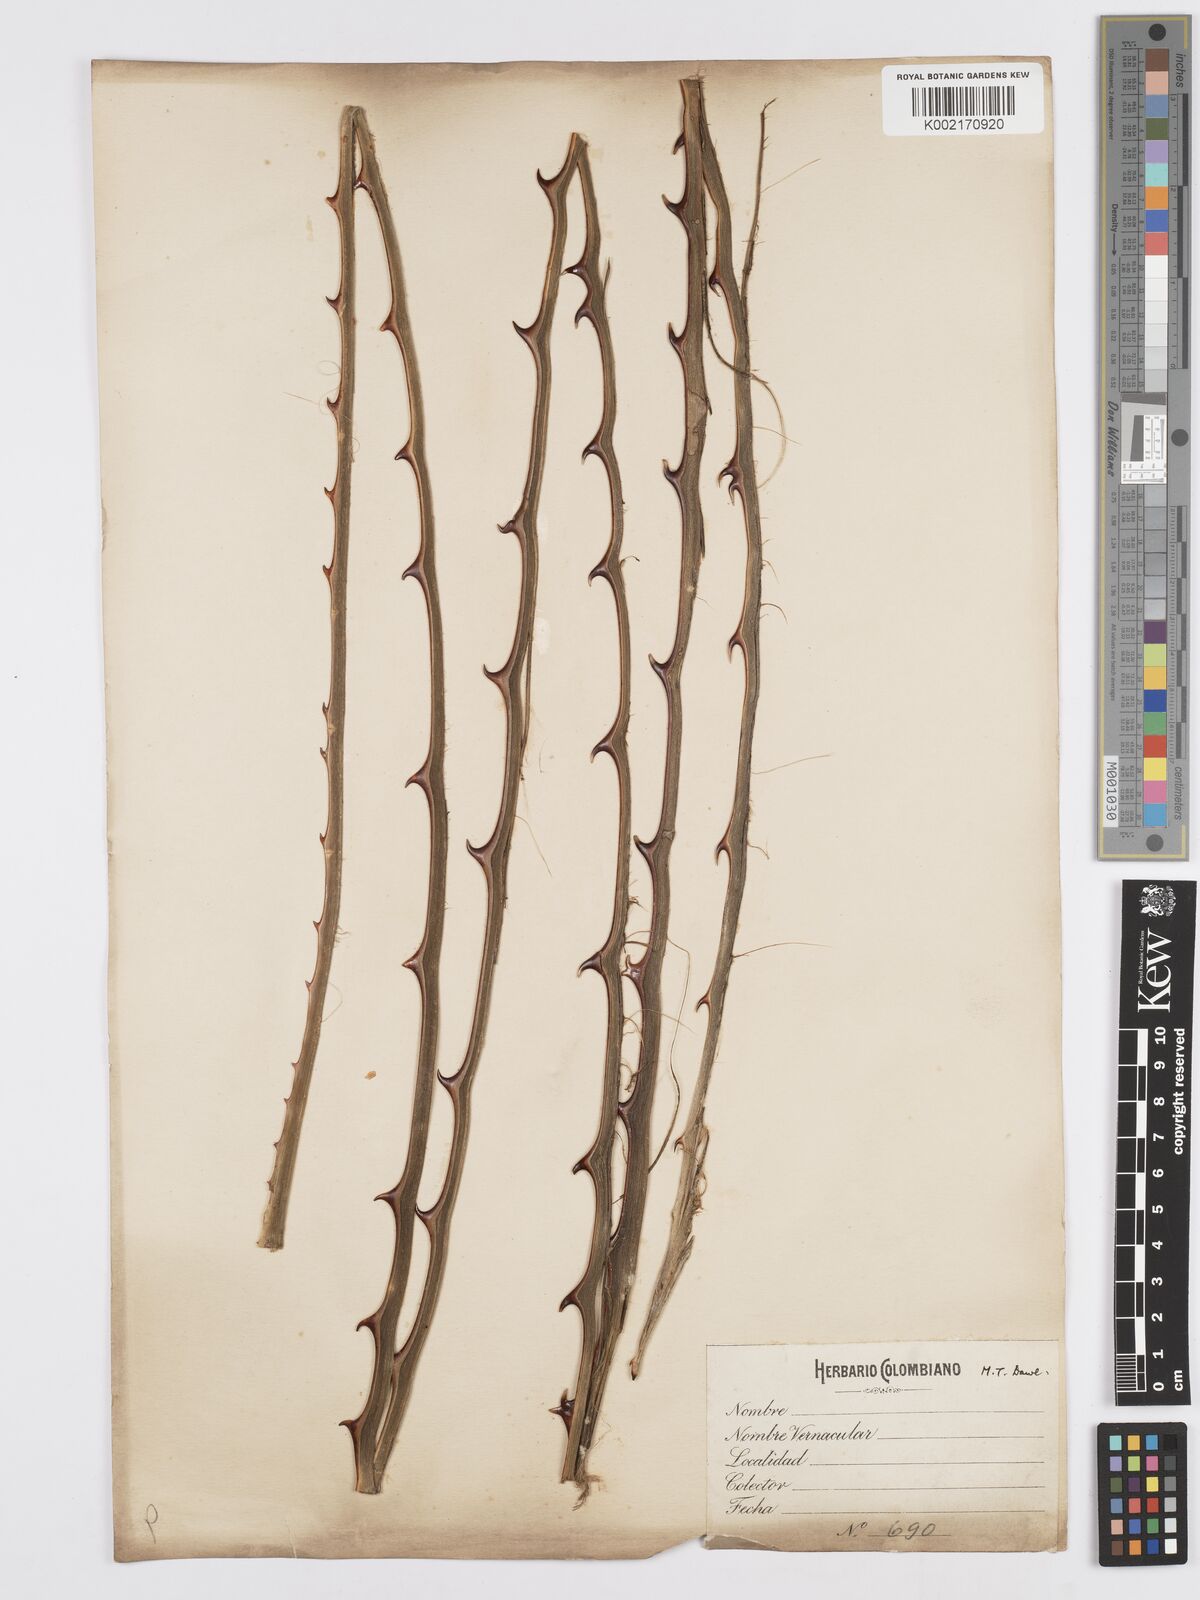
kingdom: Plantae
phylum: Tracheophyta
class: Liliopsida
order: Asparagales
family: Asparagaceae
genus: Furcraea
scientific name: Furcraea hexapetala
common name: Cuban-hemp
